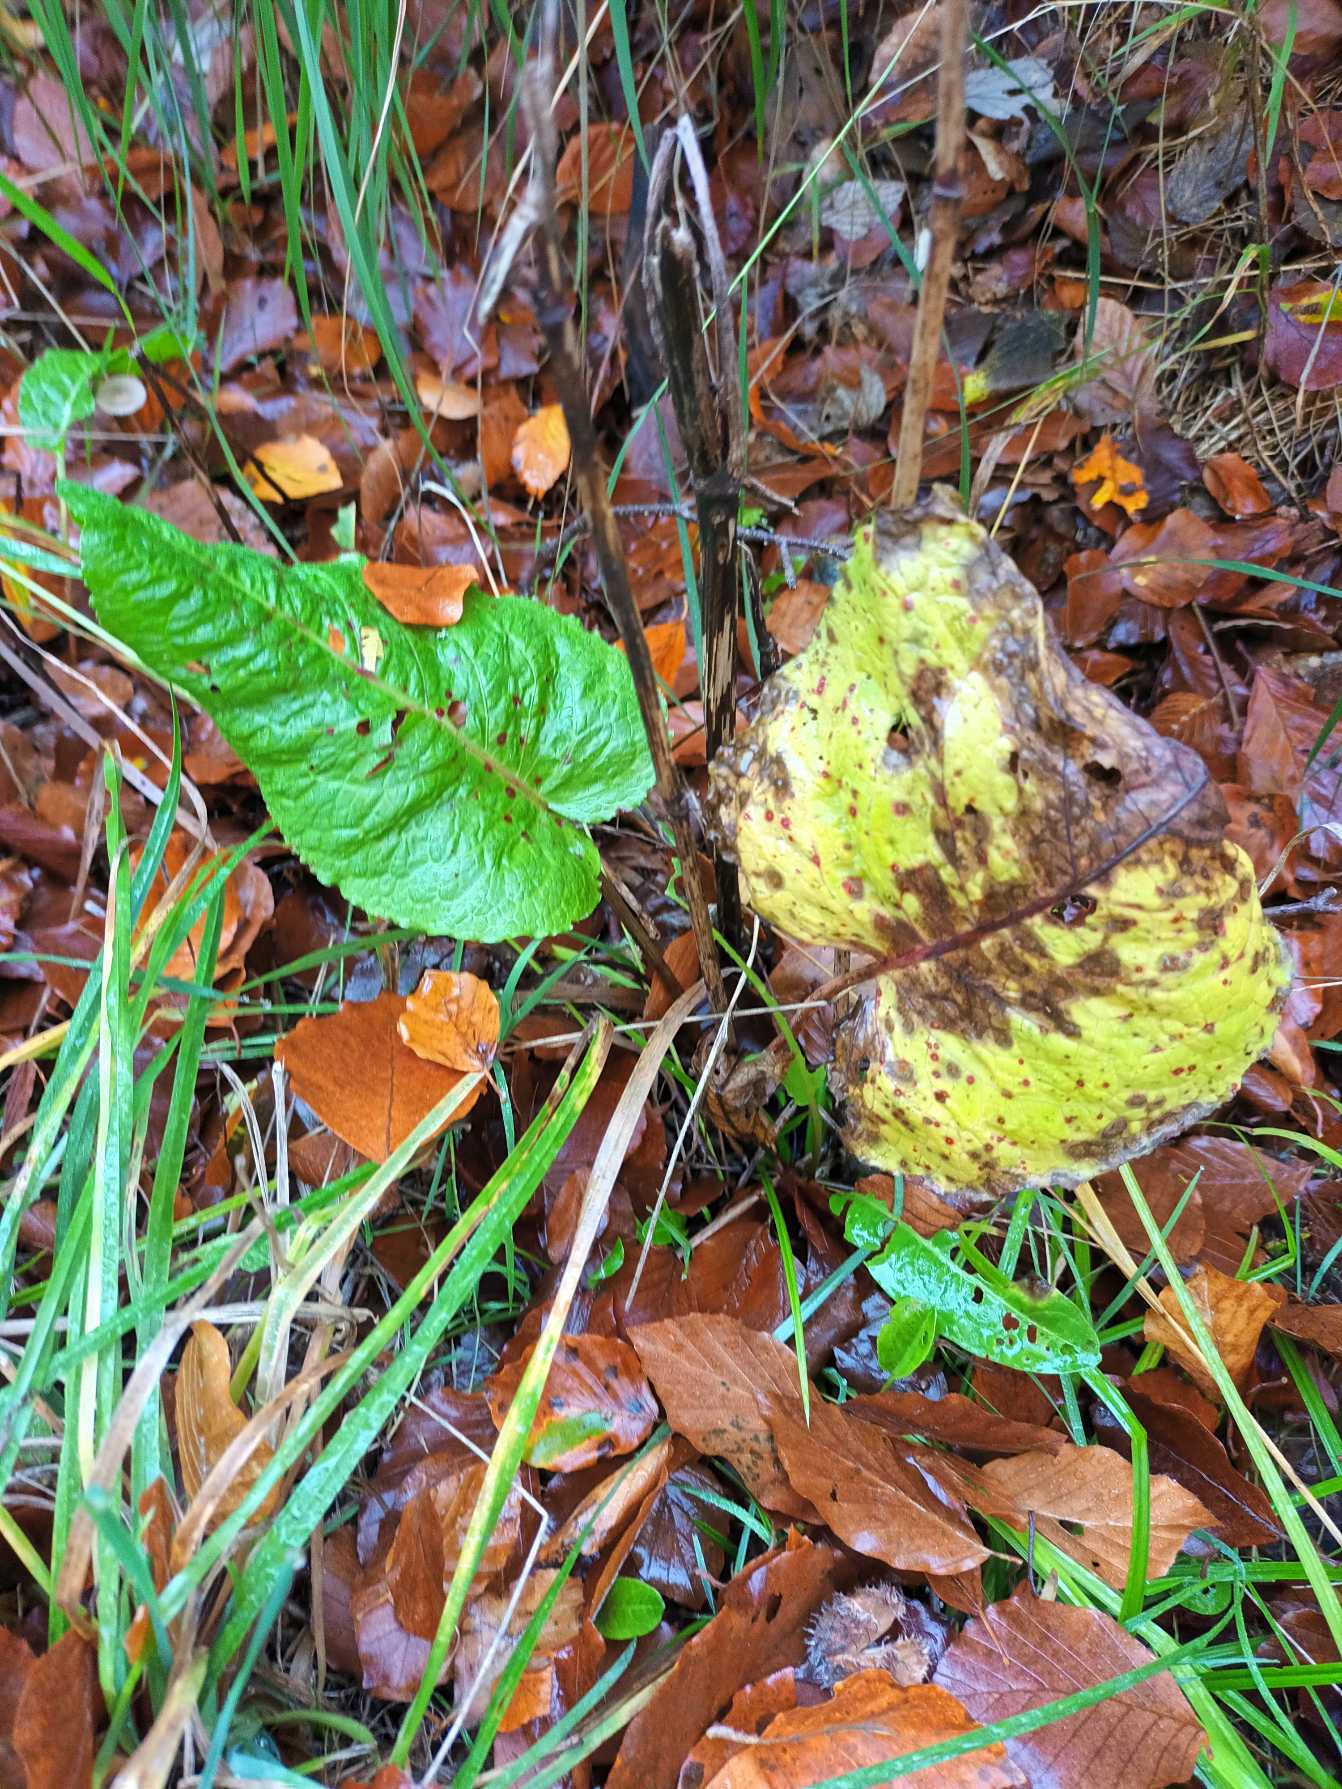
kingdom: Plantae
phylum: Tracheophyta
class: Magnoliopsida
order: Caryophyllales
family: Polygonaceae
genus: Rumex
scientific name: Rumex obtusifolius
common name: Butbladet skræppe
